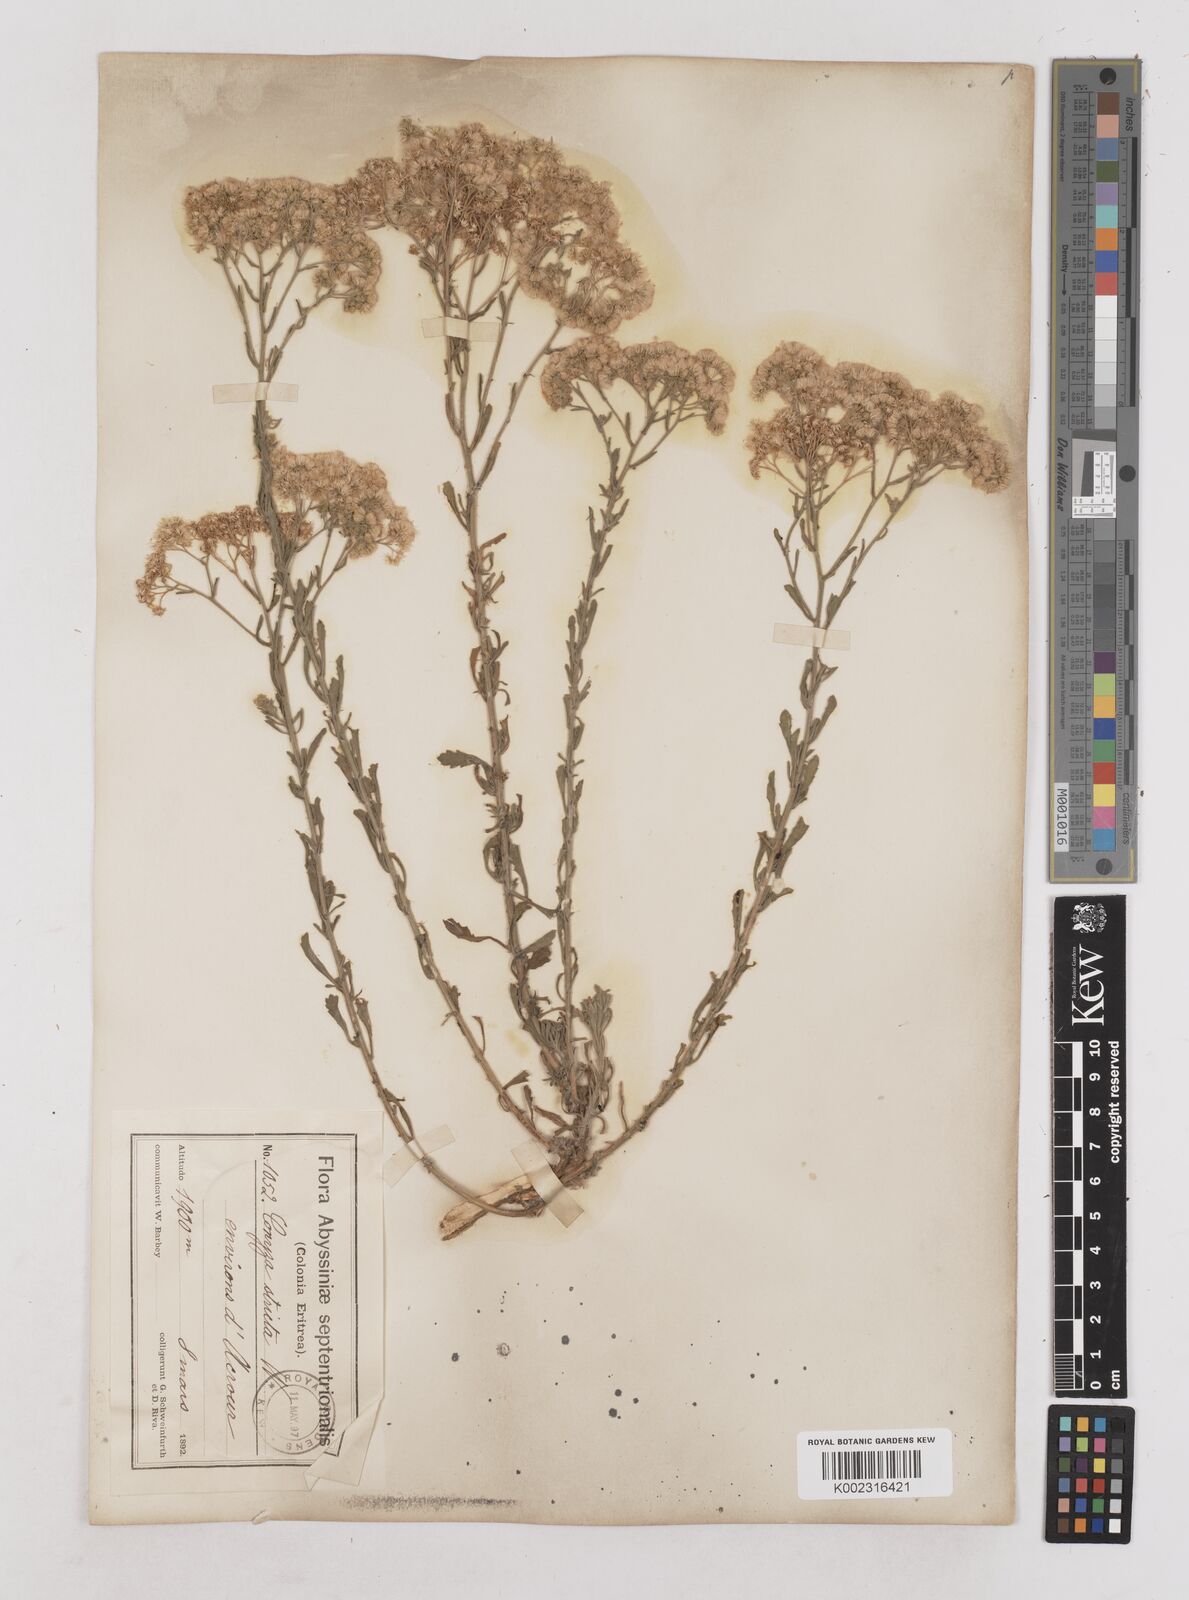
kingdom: Plantae
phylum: Tracheophyta
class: Magnoliopsida
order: Asterales
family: Asteraceae
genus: Nidorella
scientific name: Nidorella triloba
